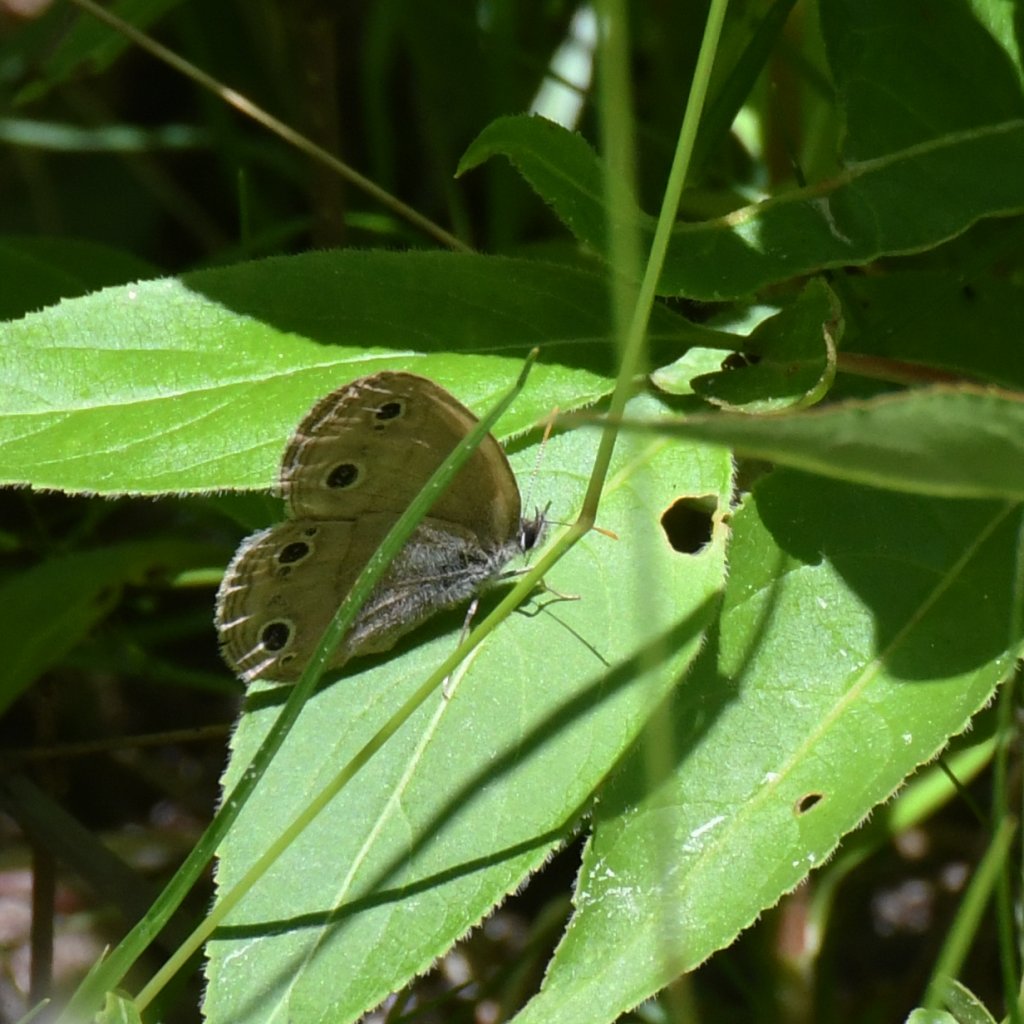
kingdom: Animalia
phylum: Arthropoda
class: Insecta
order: Lepidoptera
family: Nymphalidae
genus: Euptychia
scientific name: Euptychia cymela
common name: Little Wood Satyr
